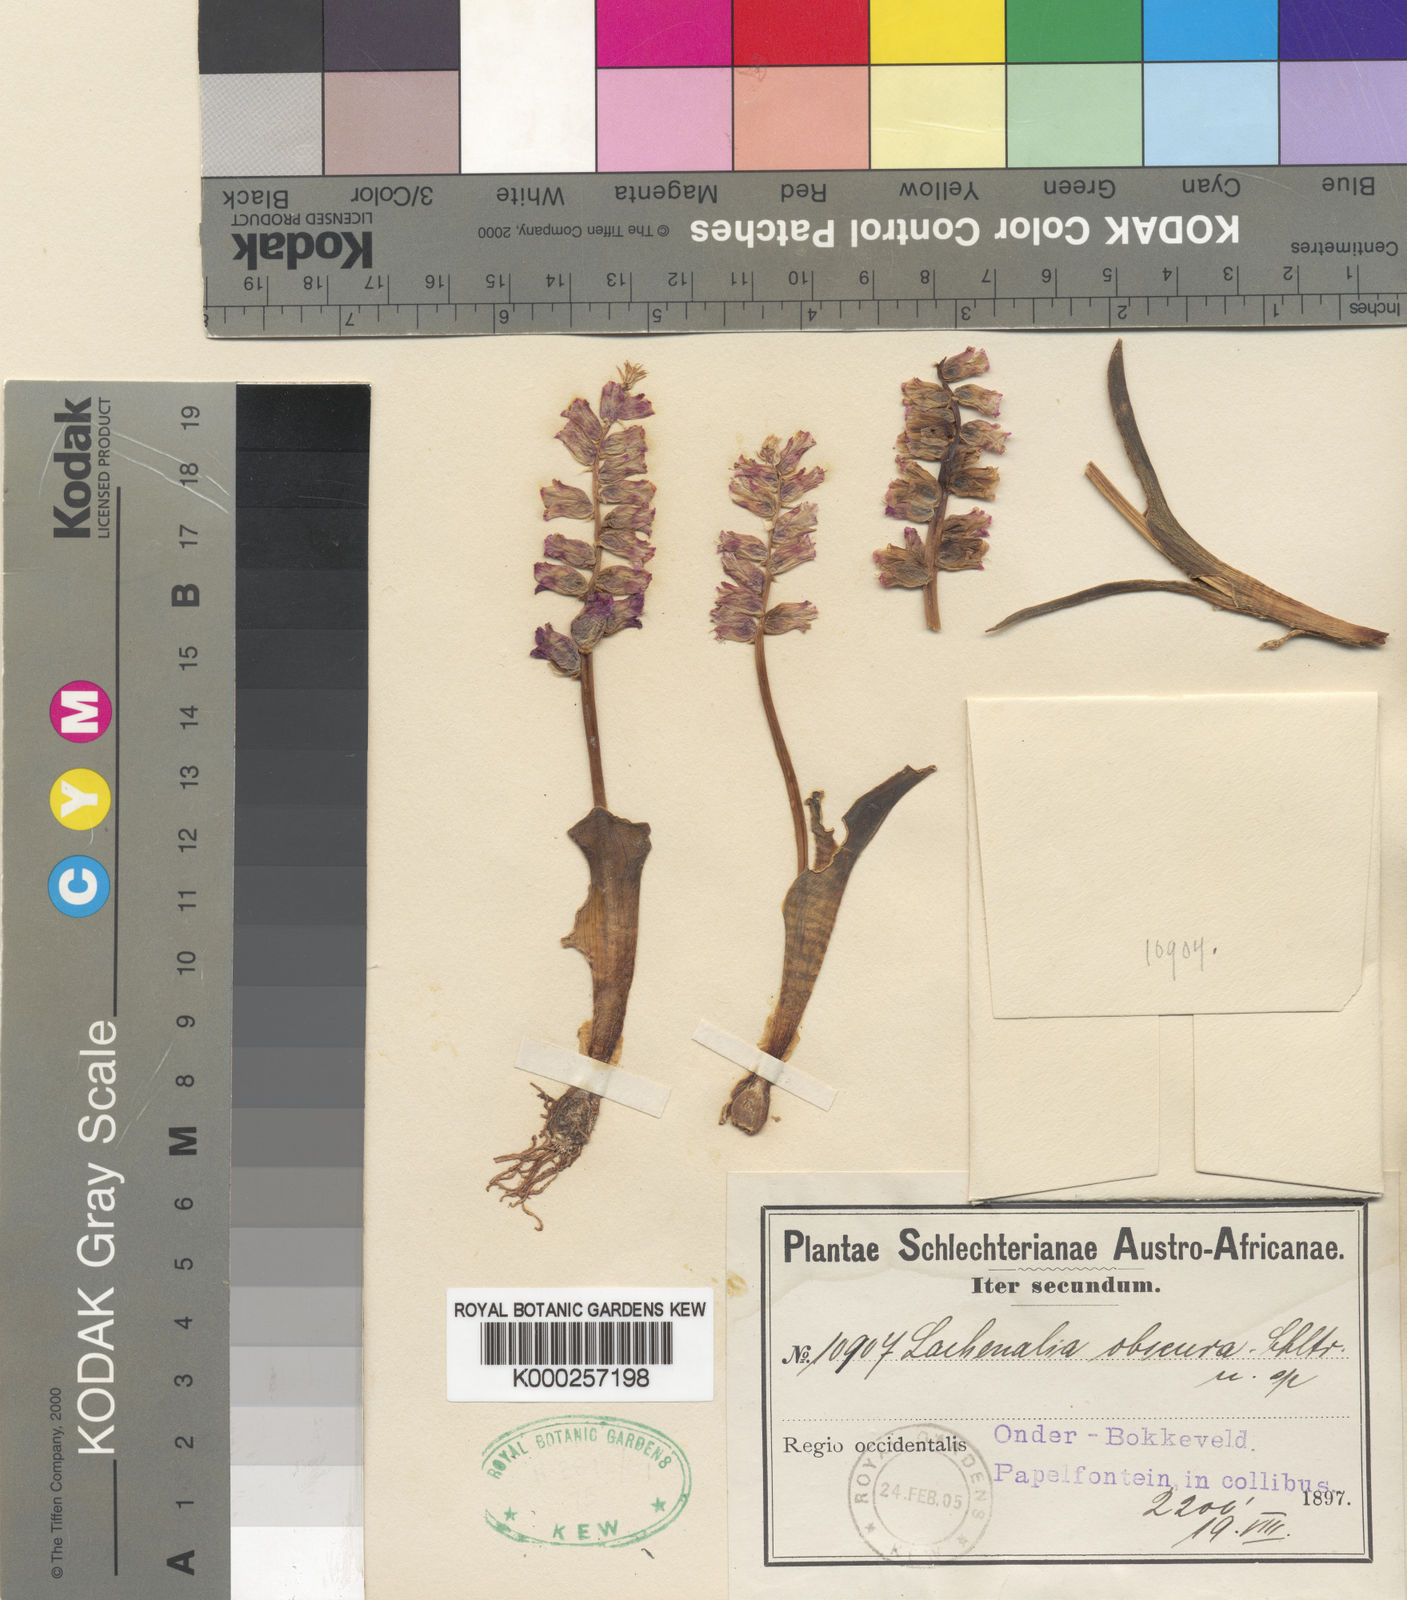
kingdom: Plantae
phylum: Tracheophyta
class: Liliopsida
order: Asparagales
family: Asparagaceae
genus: Lachenalia
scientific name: Lachenalia obscura
